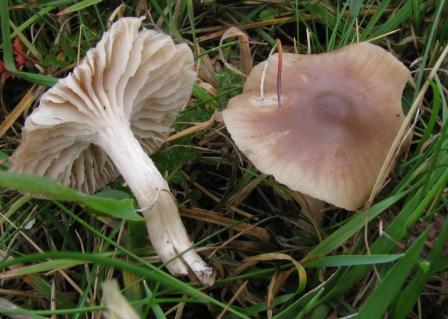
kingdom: Fungi
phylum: Basidiomycota
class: Agaricomycetes
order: Agaricales
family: Hygrophoraceae
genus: Cuphophyllus
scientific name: Cuphophyllus colemannianus
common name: rødbrun vokshat
